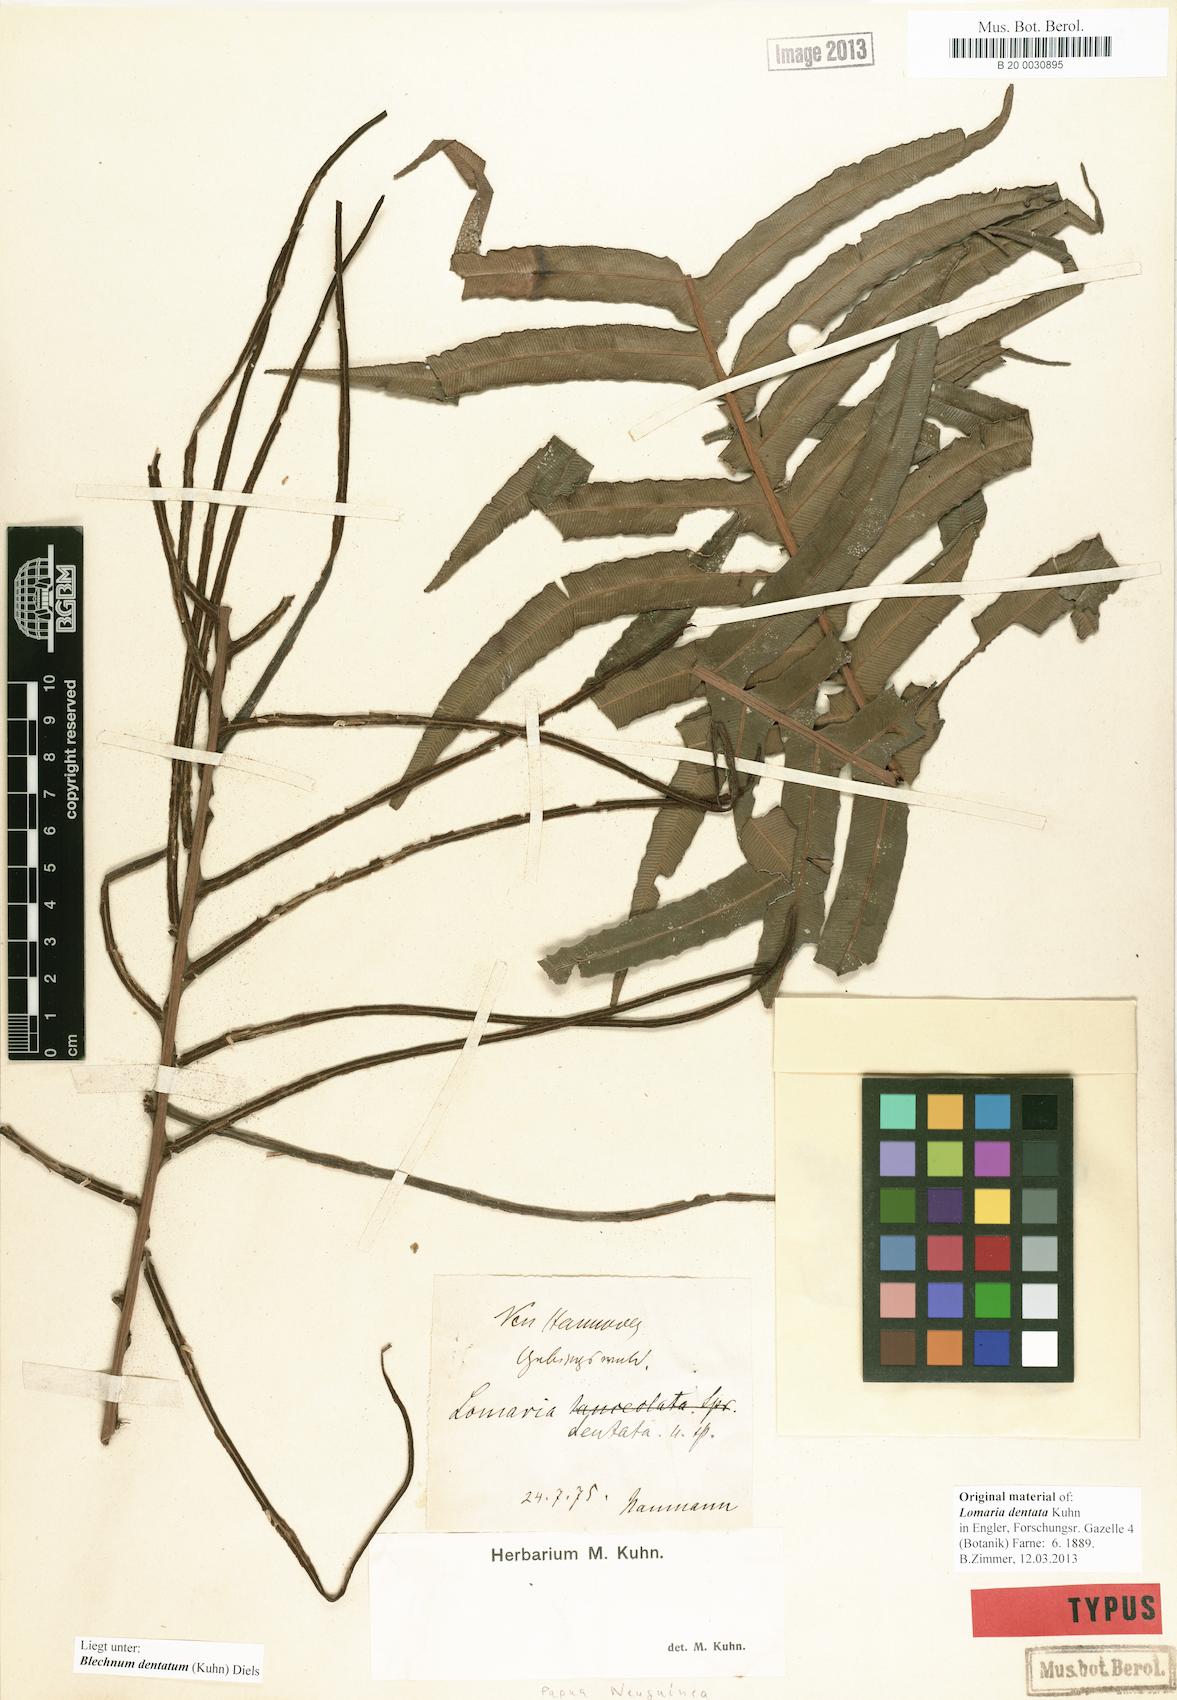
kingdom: Plantae
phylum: Tracheophyta
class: Polypodiopsida
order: Polypodiales
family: Blechnaceae
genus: Oceaniopteris
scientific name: Oceaniopteris vittata
